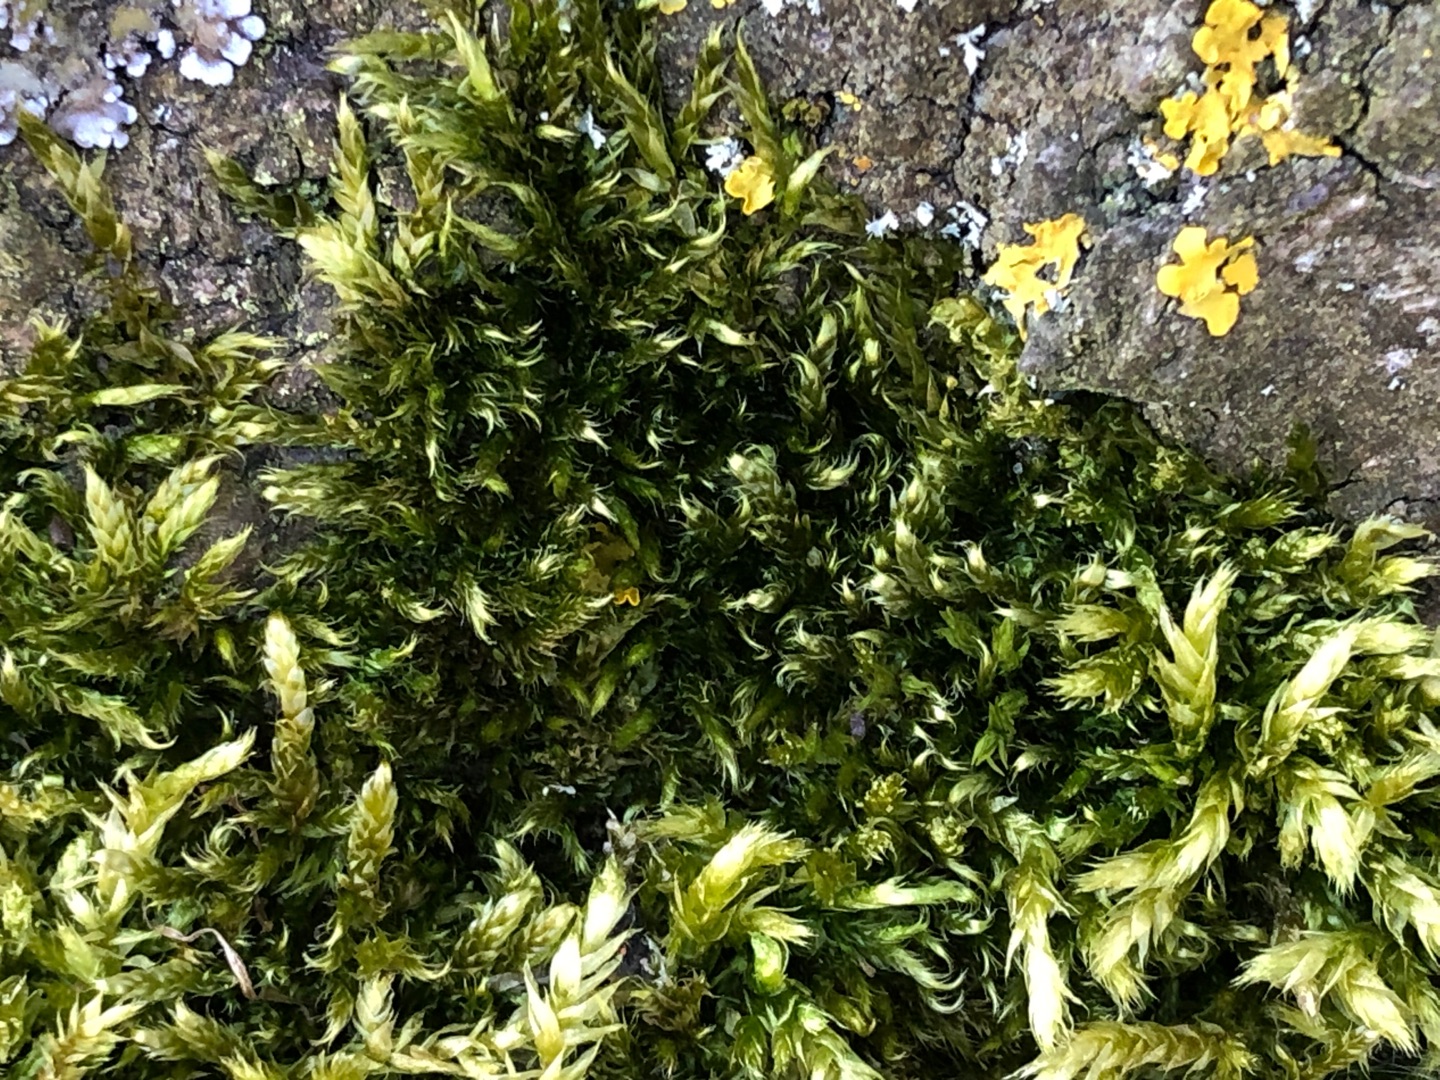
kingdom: Plantae
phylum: Bryophyta
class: Bryopsida
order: Hypnales
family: Hypnaceae
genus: Hypnum
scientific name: Hypnum cupressiforme
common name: Almindelig cypresmos
